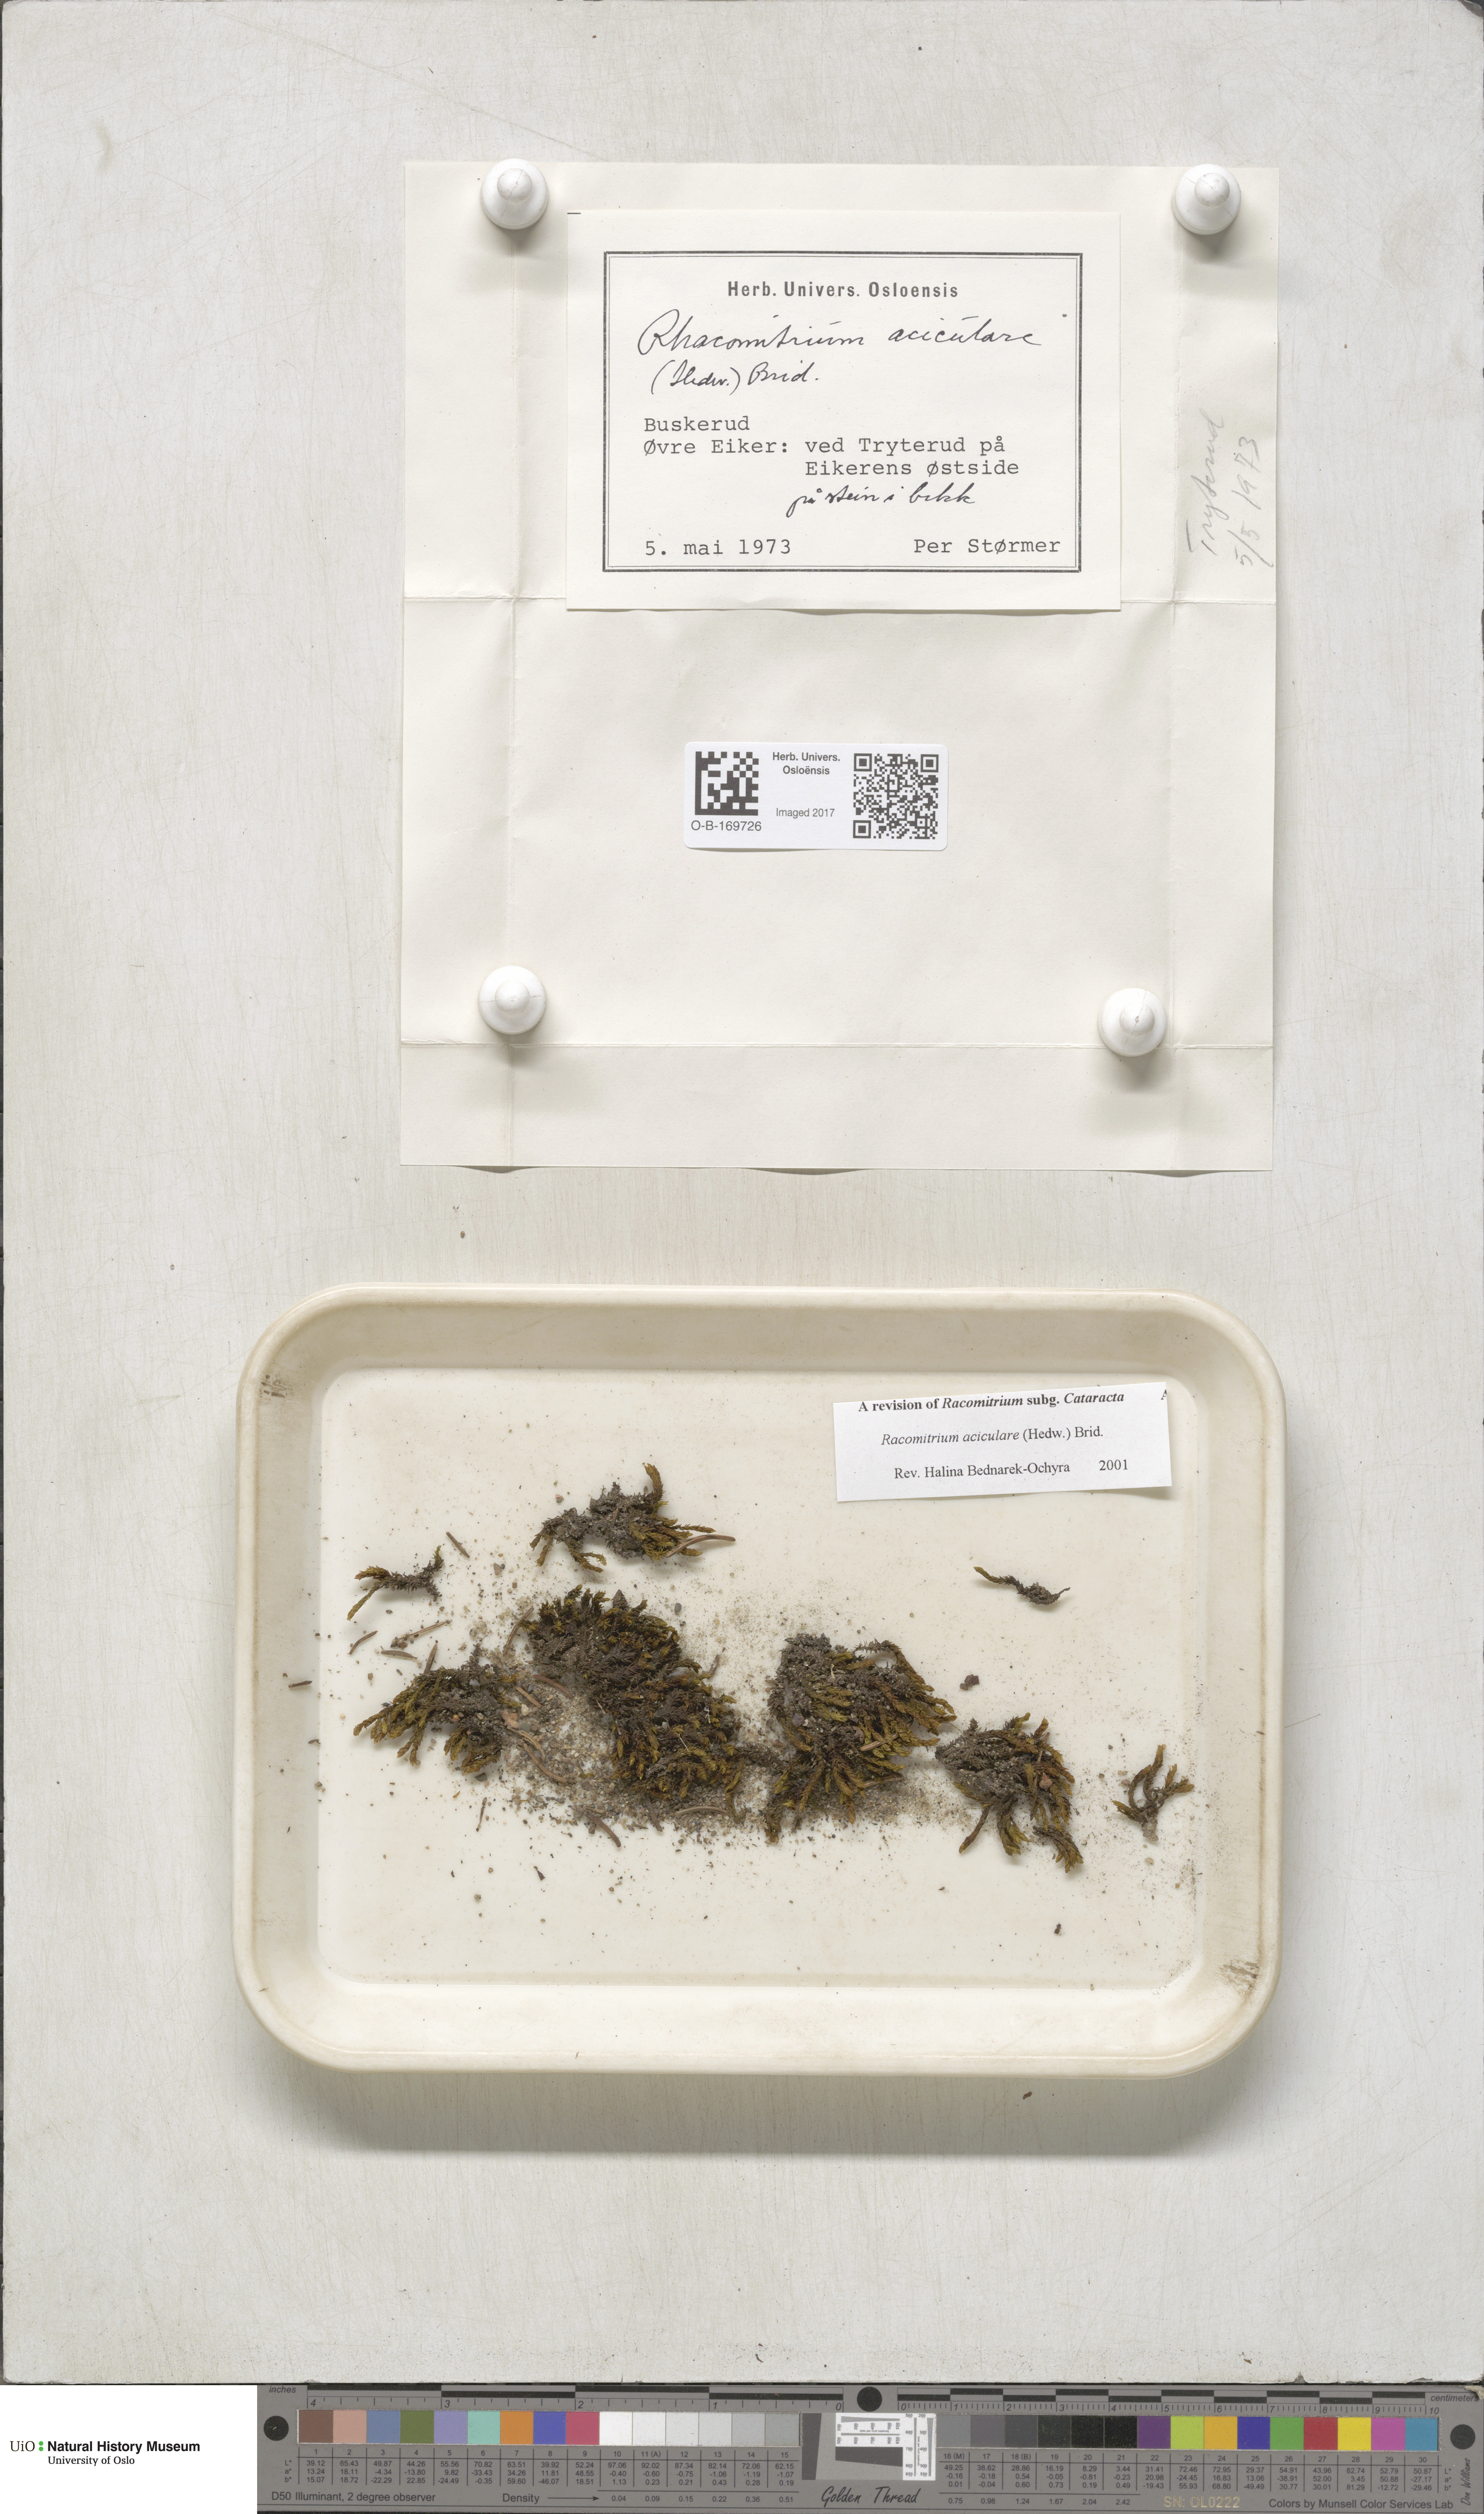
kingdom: Plantae
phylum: Bryophyta
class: Bryopsida
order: Grimmiales
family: Grimmiaceae
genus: Codriophorus
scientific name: Codriophorus acicularis
